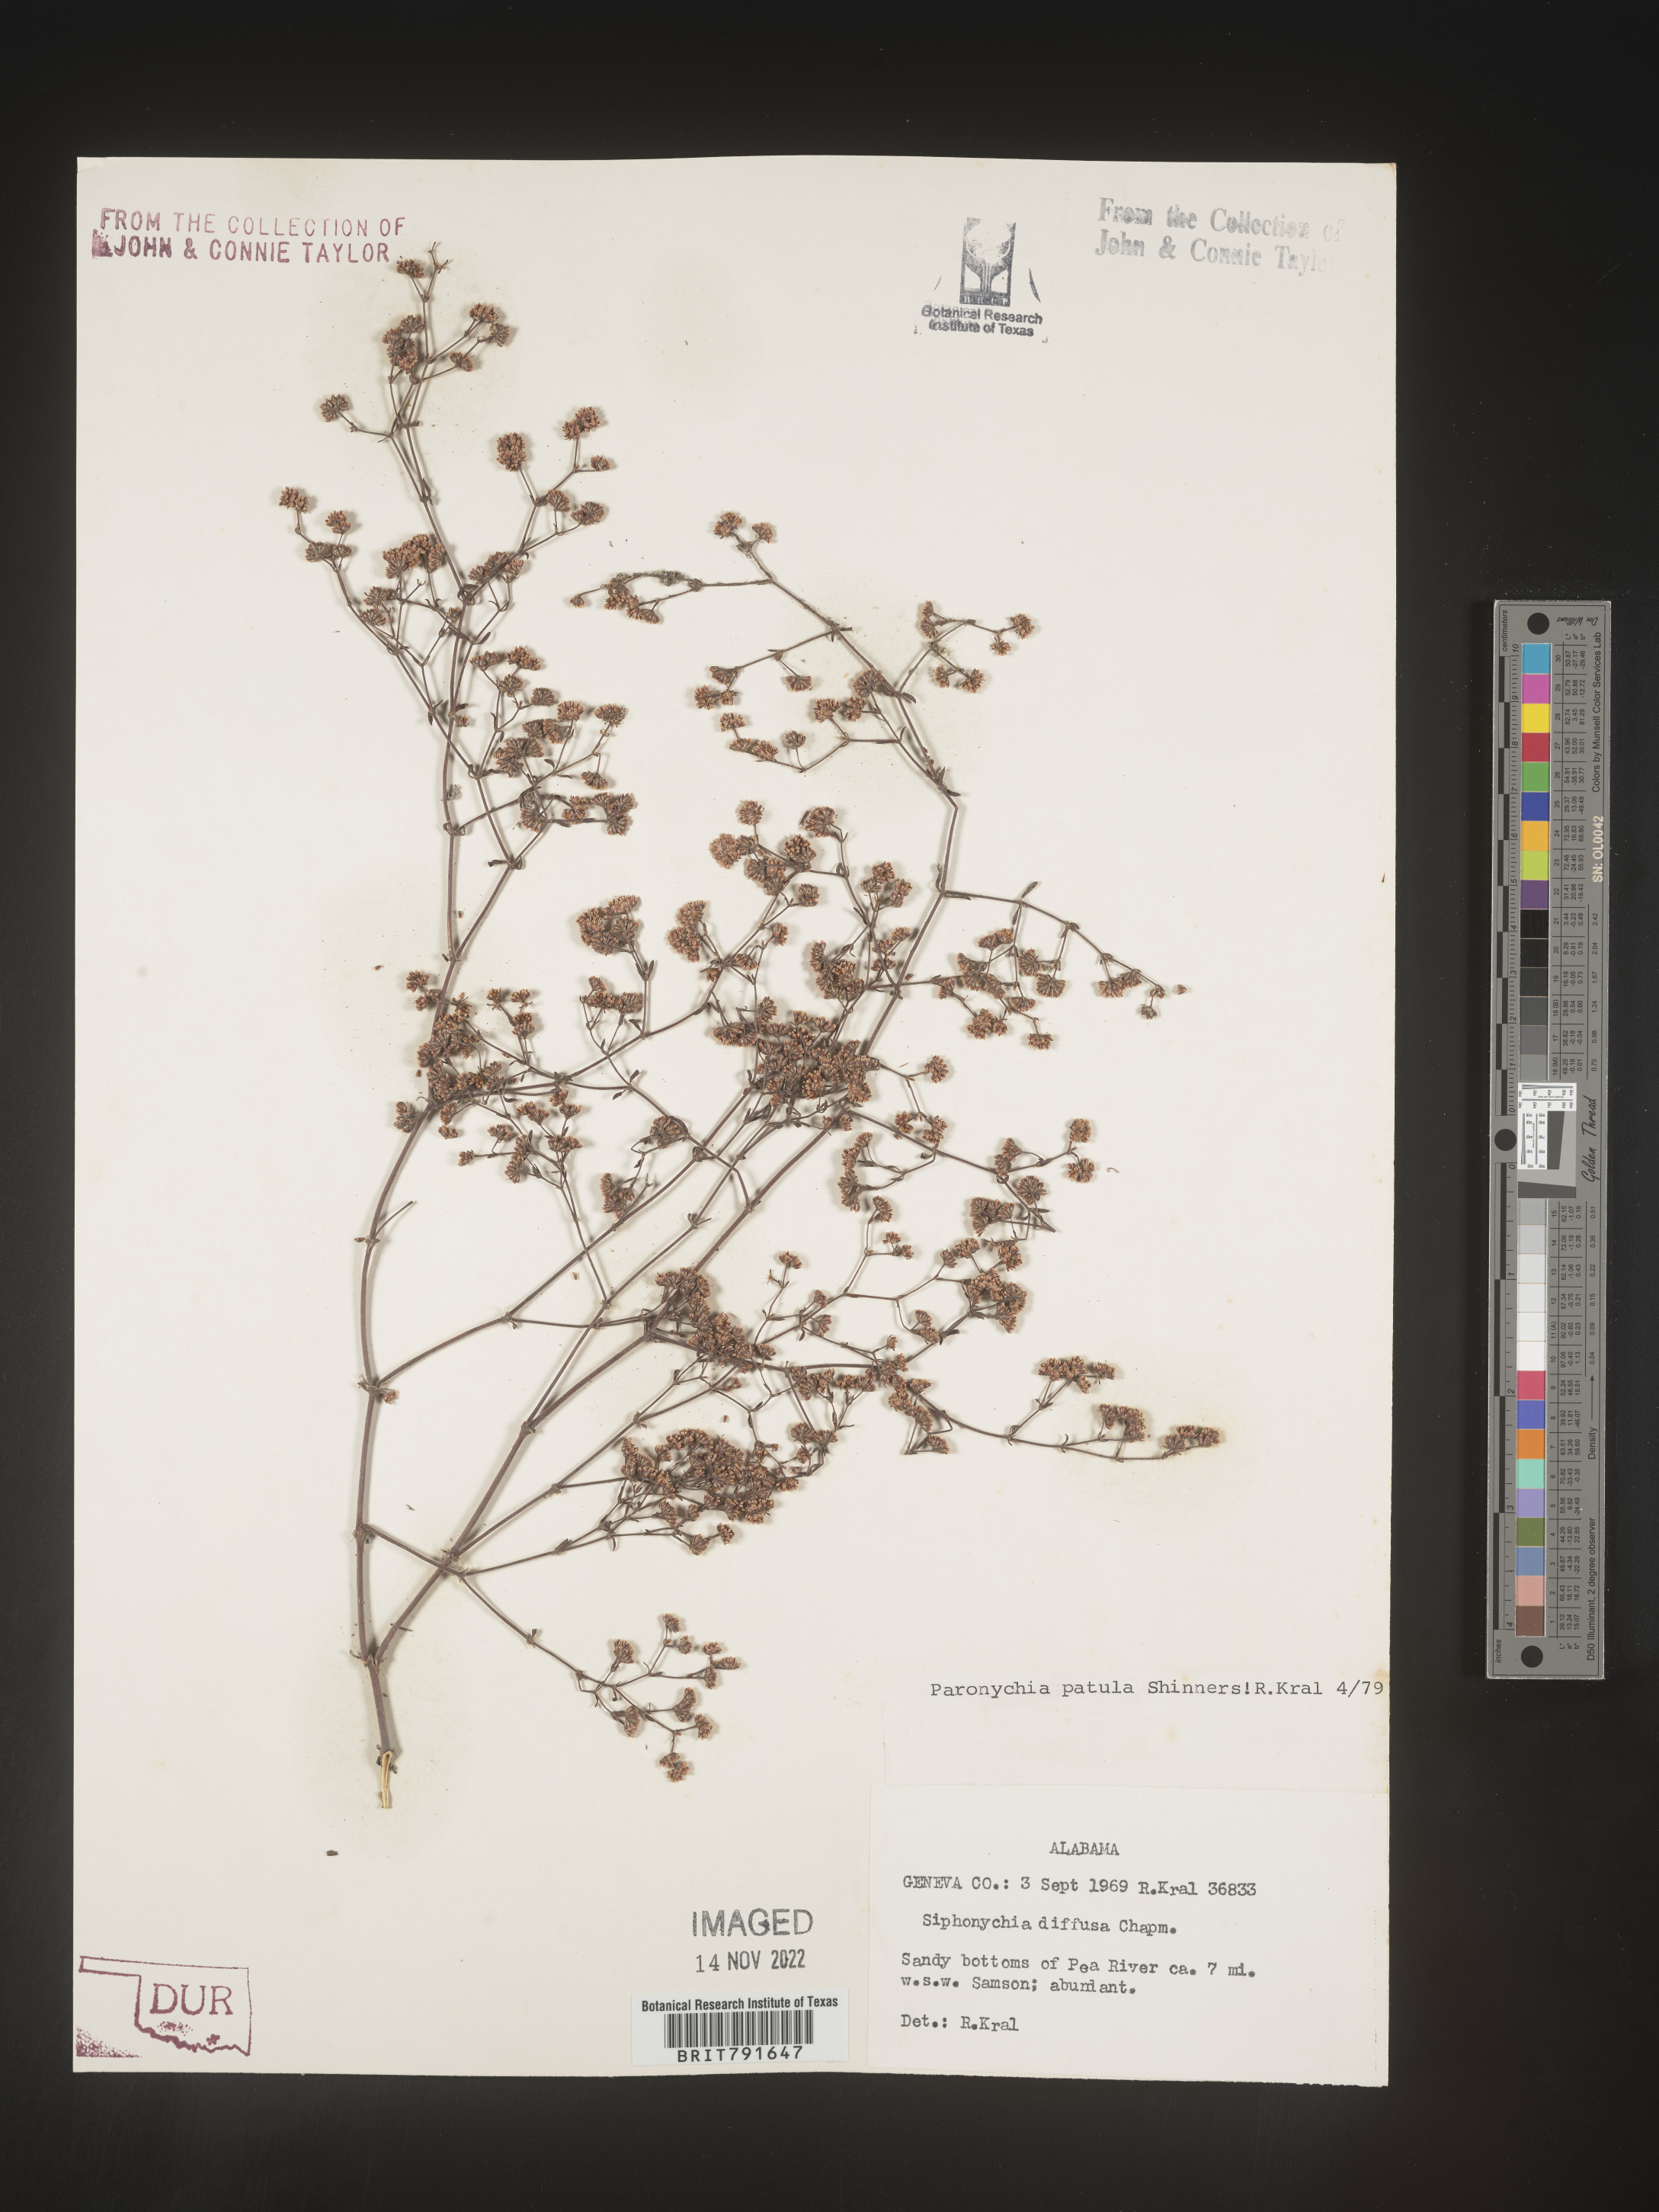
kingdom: Plantae
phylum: Tracheophyta
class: Magnoliopsida
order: Caryophyllales
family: Caryophyllaceae
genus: Paronychia
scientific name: Paronychia patula
